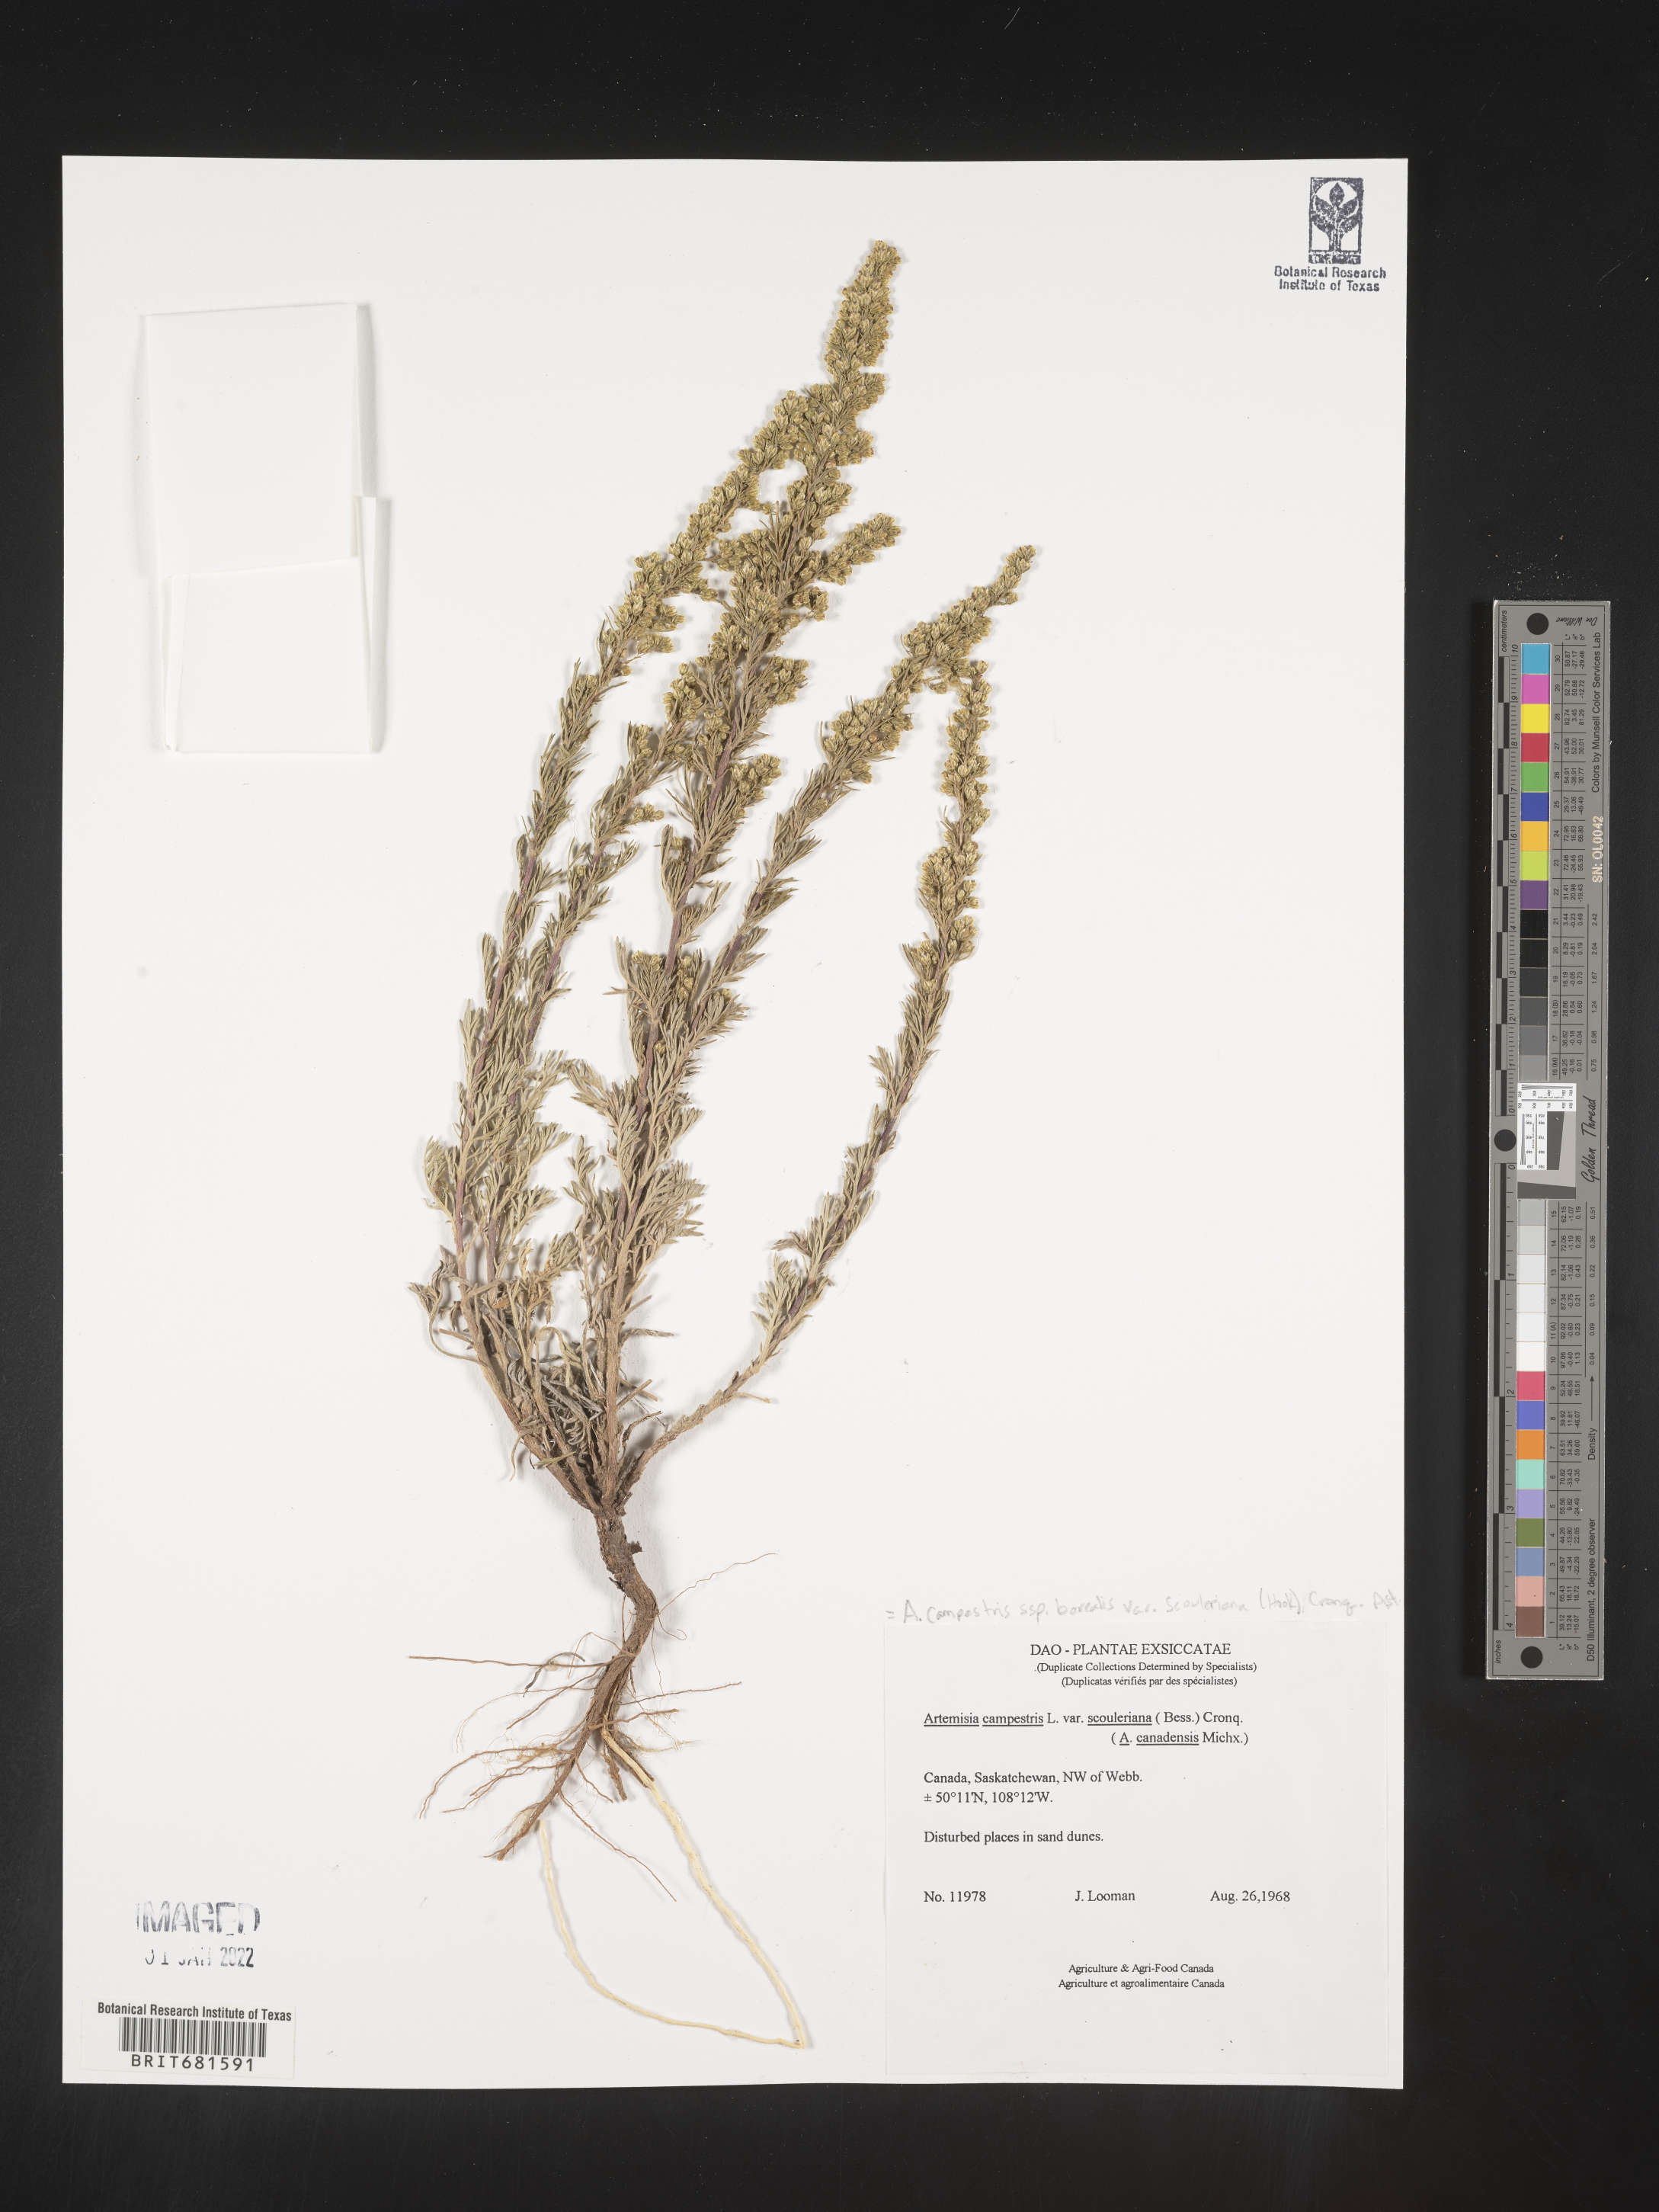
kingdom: Plantae
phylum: Tracheophyta
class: Magnoliopsida
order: Asterales
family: Asteraceae
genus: Artemisia
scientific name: Artemisia
